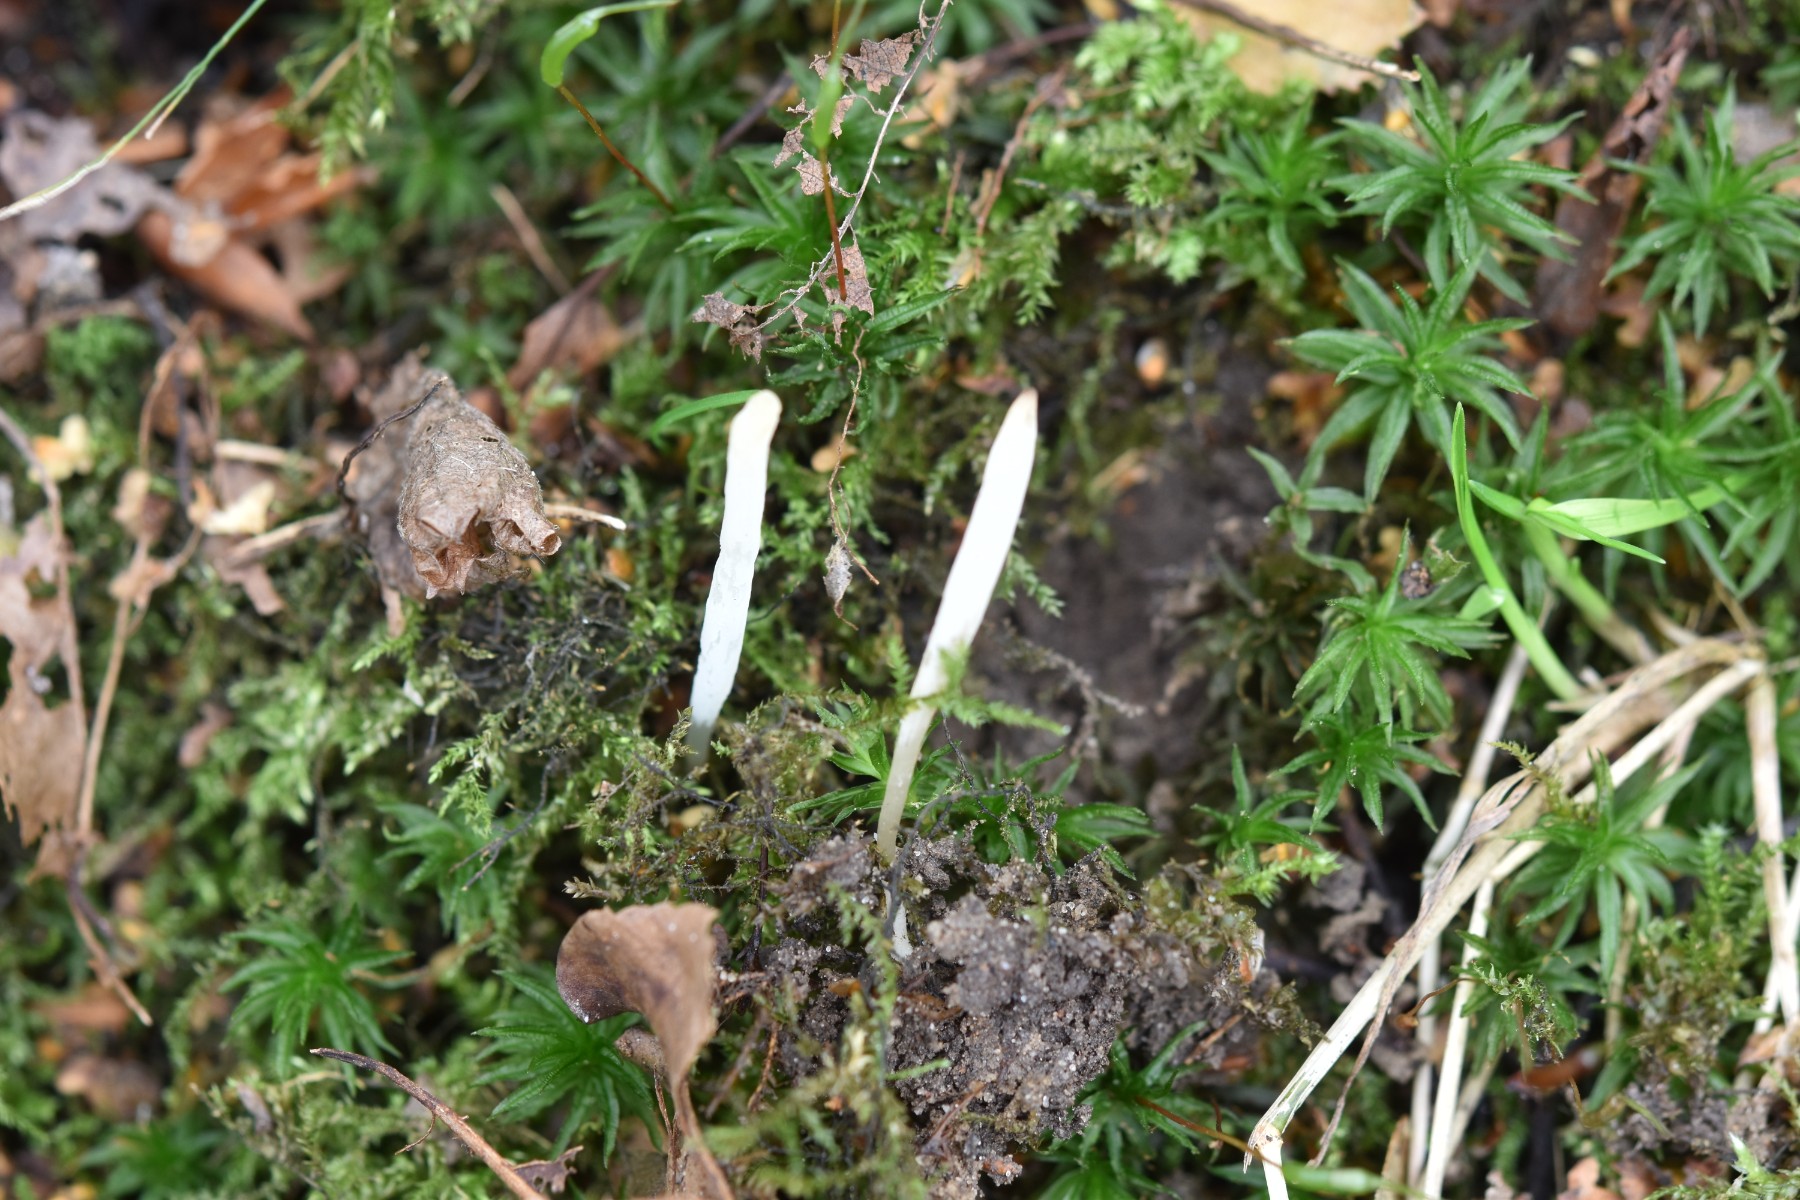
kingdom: Fungi
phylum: Basidiomycota
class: Agaricomycetes
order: Agaricales
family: Clavariaceae
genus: Clavaria
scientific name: Clavaria falcata
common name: hvid køllesvamp
